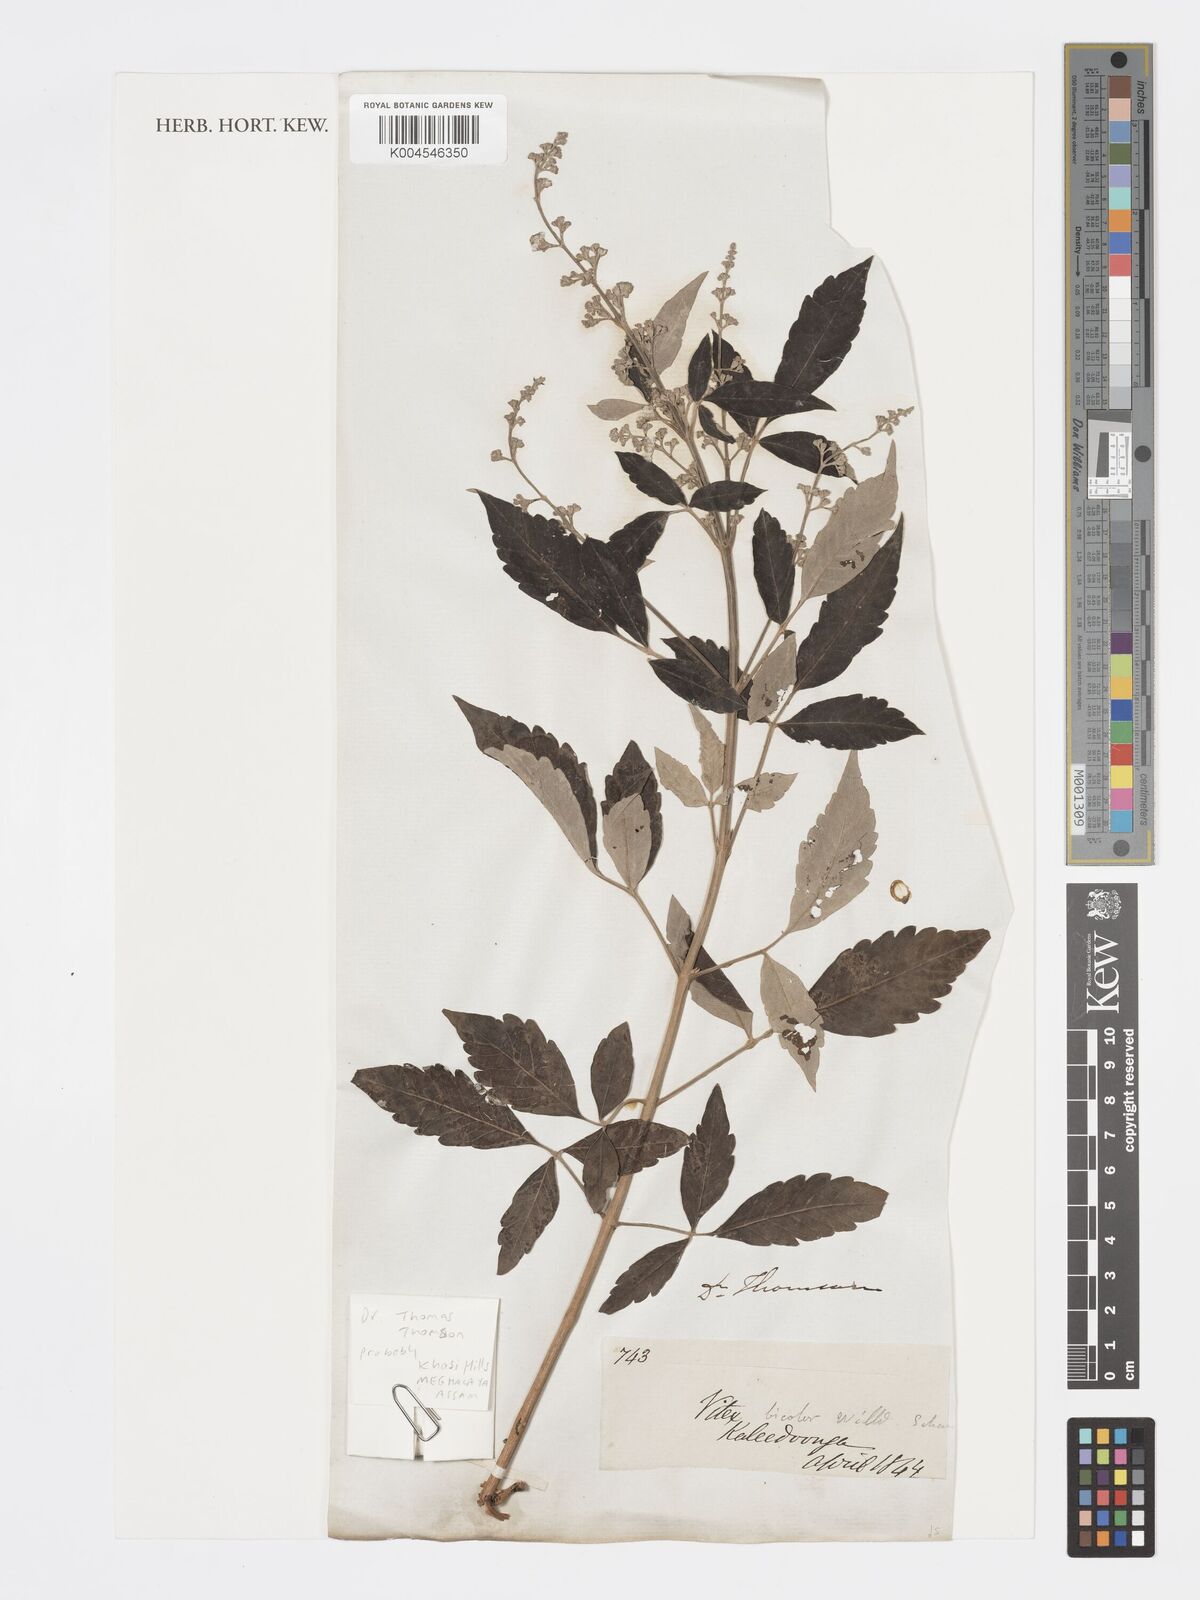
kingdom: Plantae
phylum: Tracheophyta
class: Magnoliopsida
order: Lamiales
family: Lamiaceae
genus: Vitex
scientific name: Vitex bicolor
